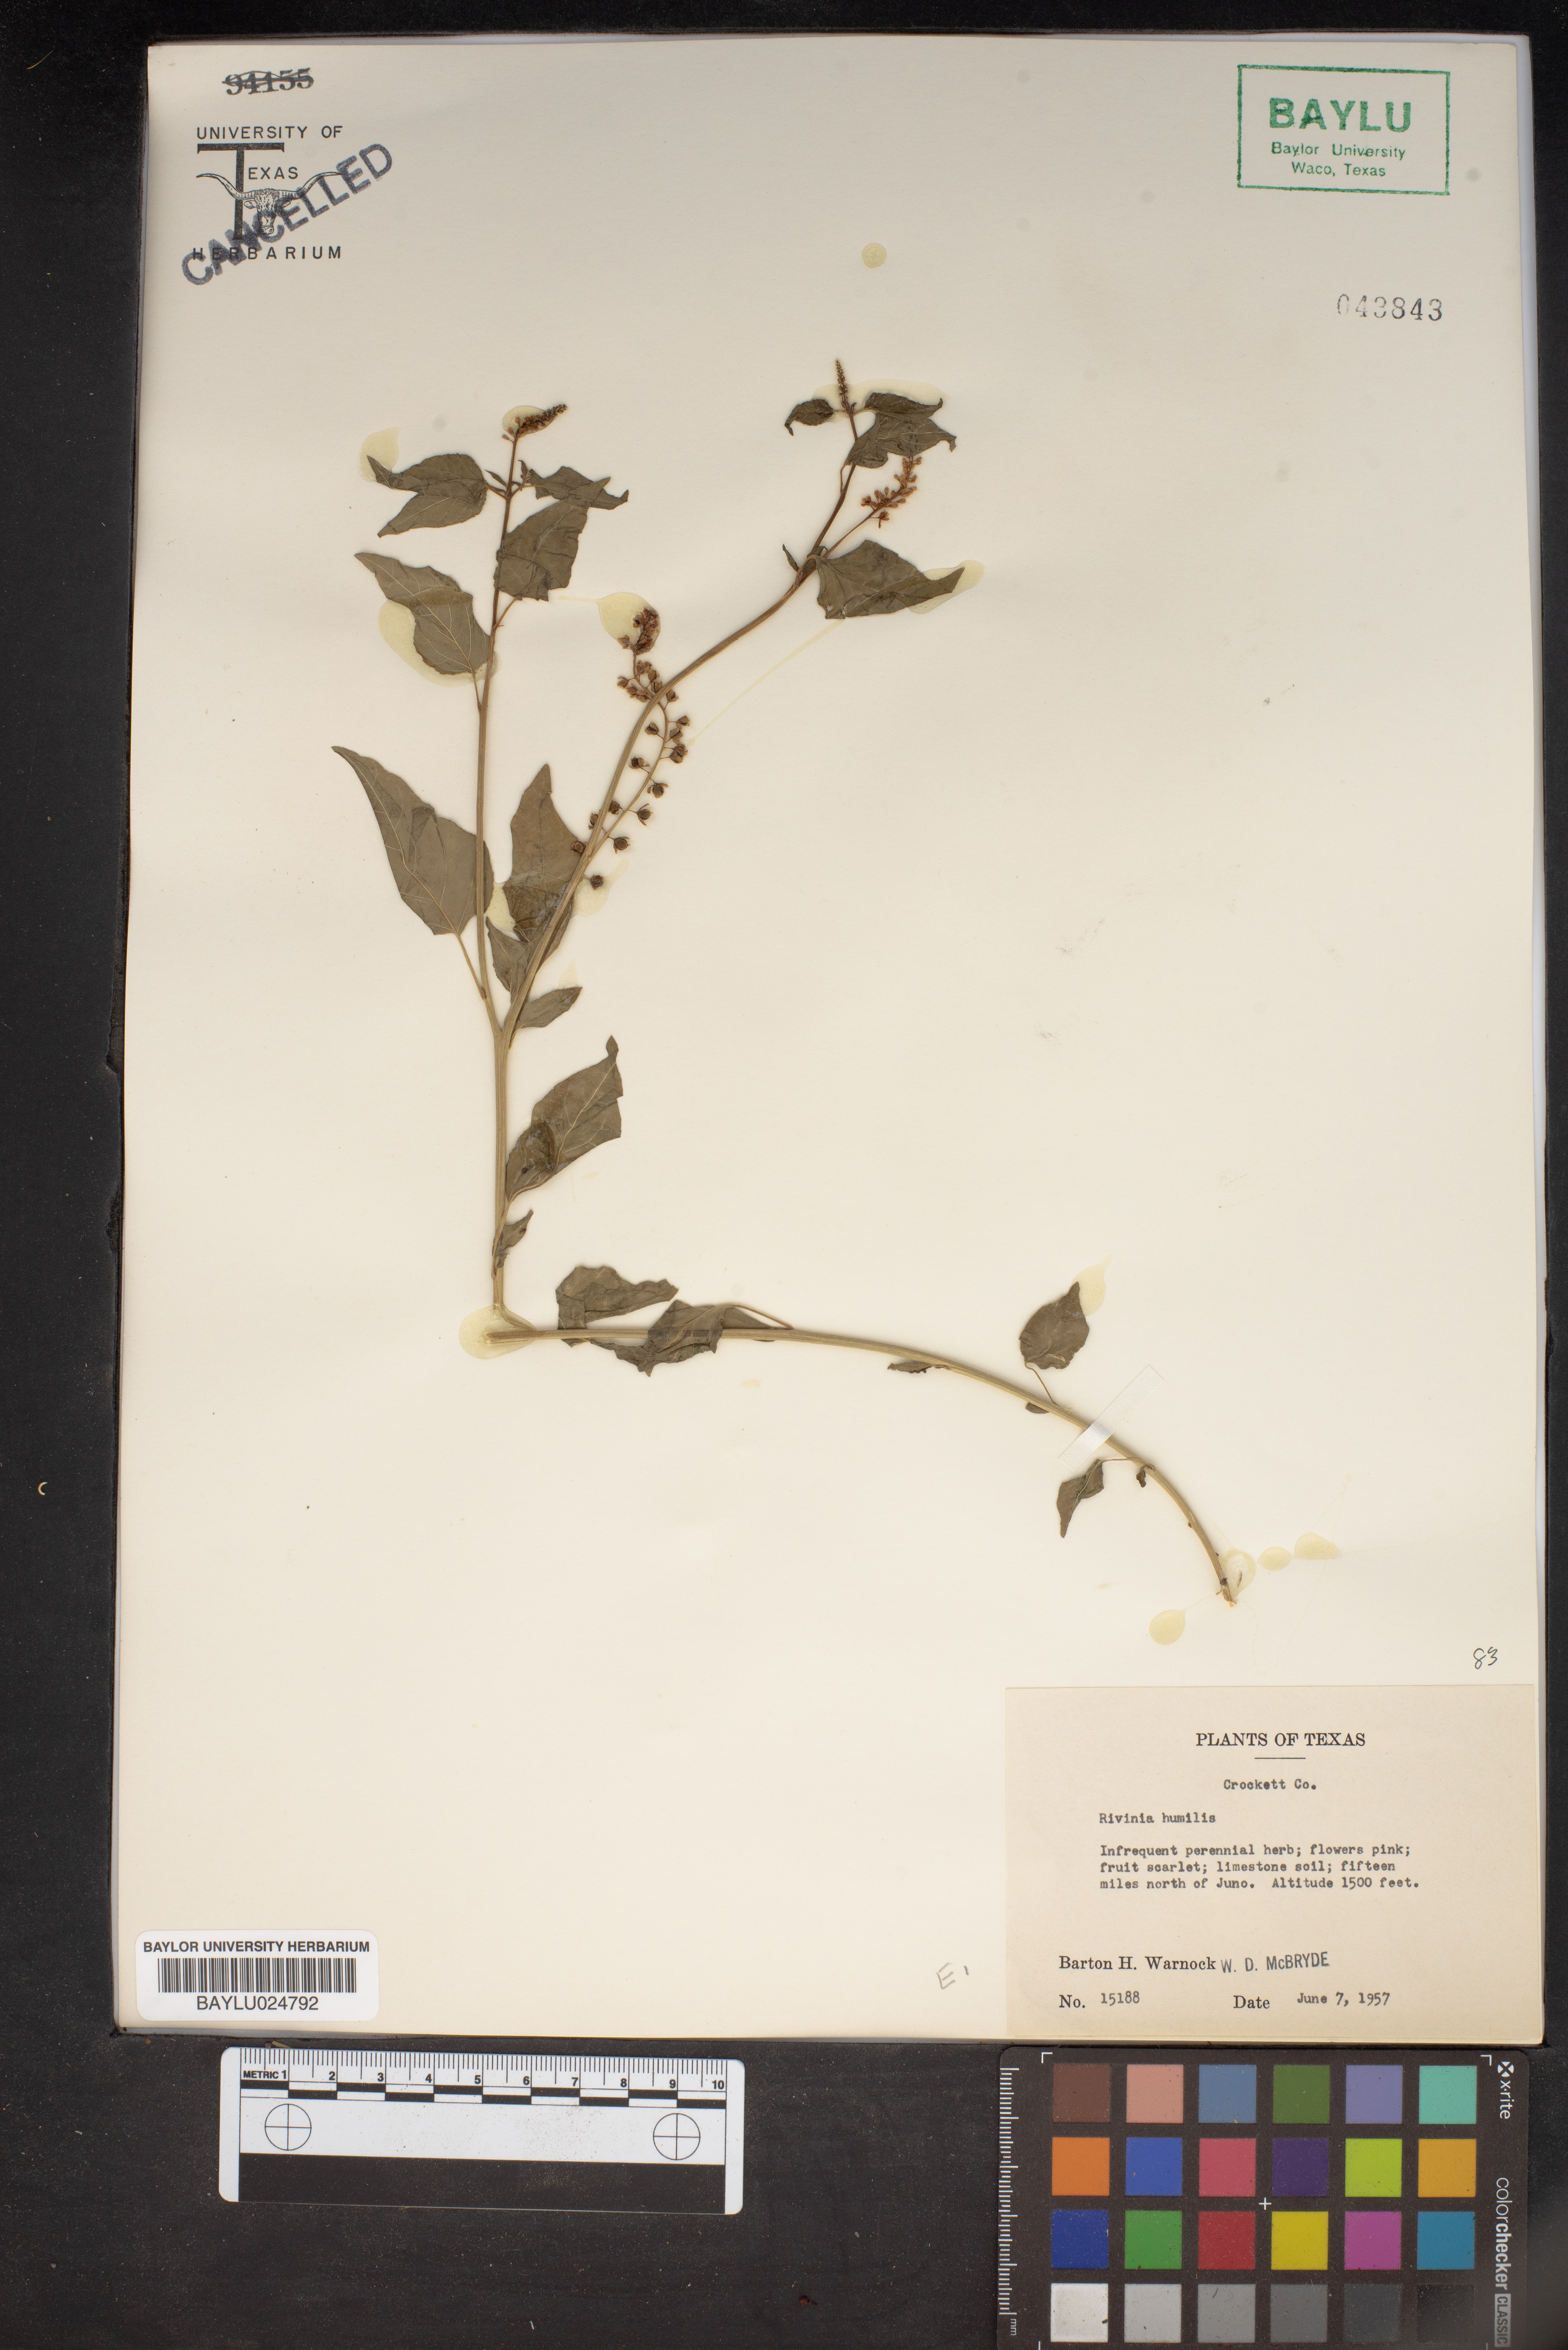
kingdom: Plantae
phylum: Tracheophyta
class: Magnoliopsida
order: Caryophyllales
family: Phytolaccaceae
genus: Rivina
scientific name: Rivina humilis
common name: Rougeplant
